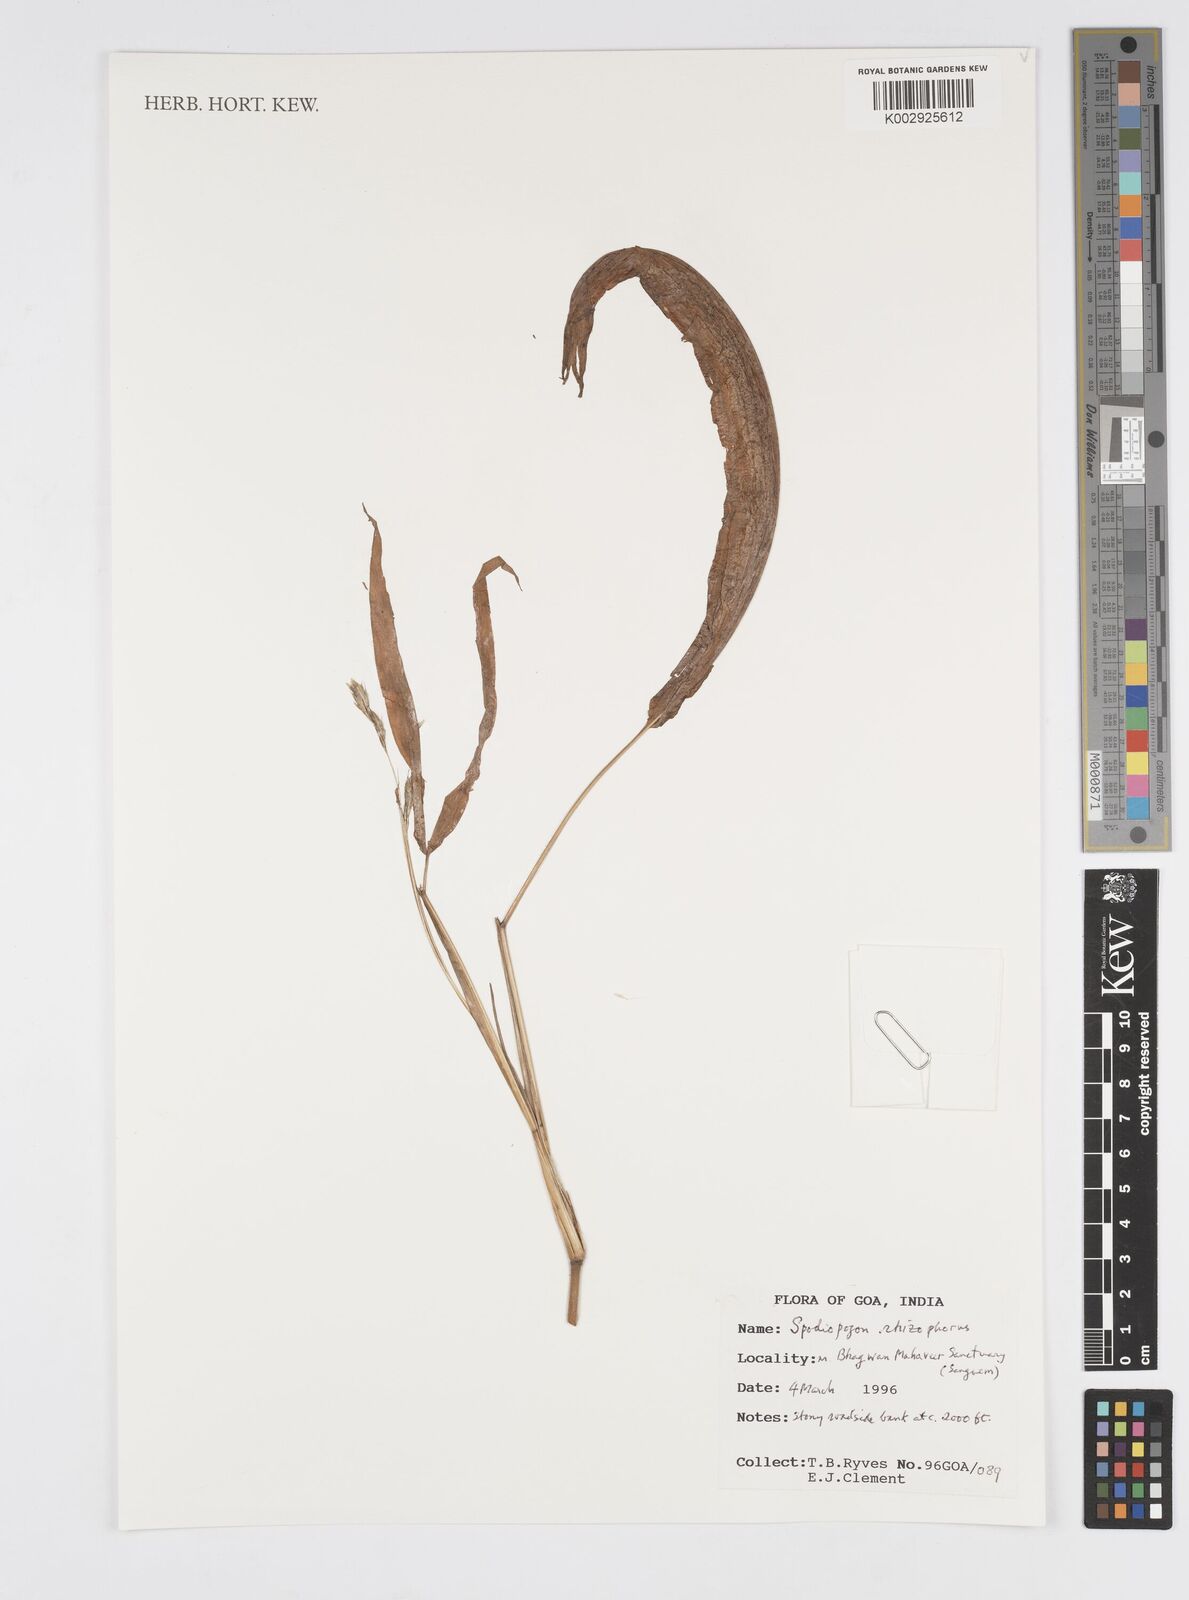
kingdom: Plantae
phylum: Tracheophyta
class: Liliopsida
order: Poales
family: Poaceae
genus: Spodiopogon
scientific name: Spodiopogon rhizophorus
